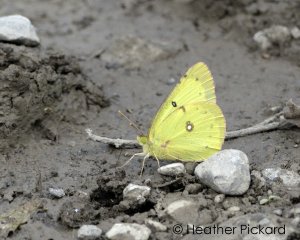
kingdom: Animalia
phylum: Arthropoda
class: Insecta
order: Lepidoptera
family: Pieridae
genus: Colias
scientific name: Colias philodice
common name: Clouded Sulphur
